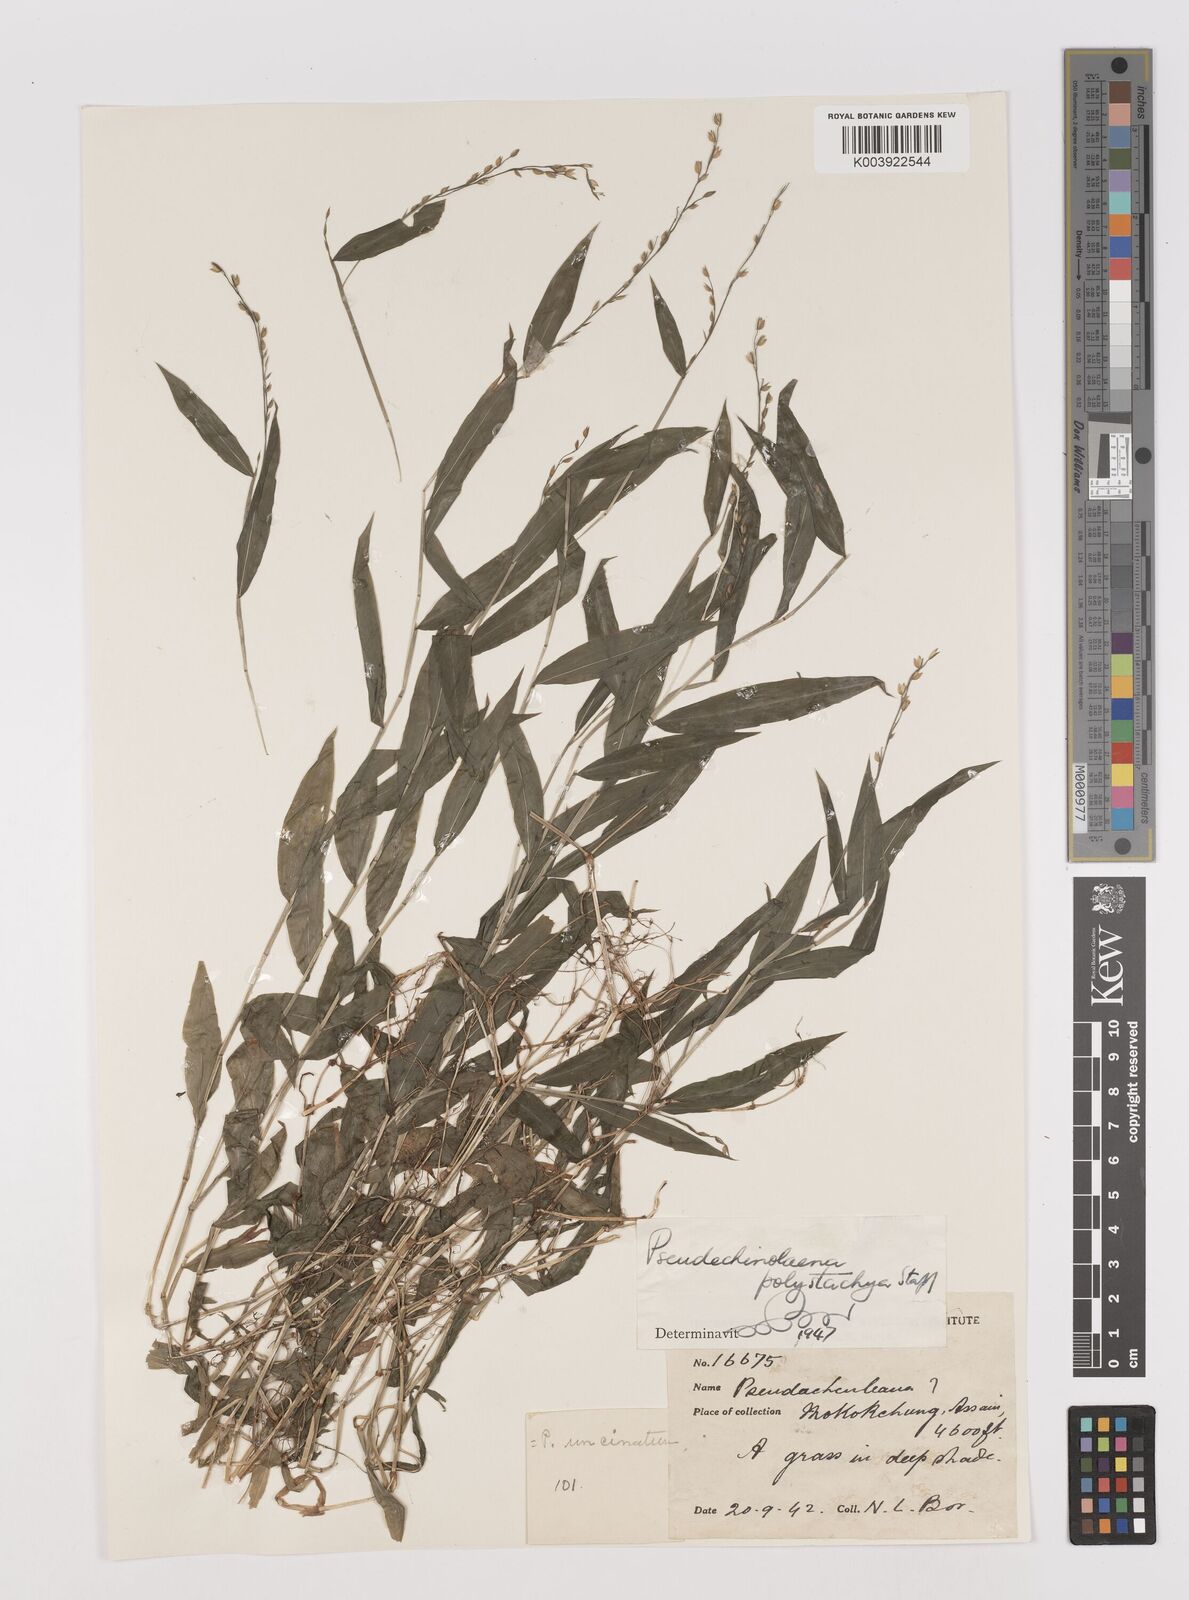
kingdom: Plantae
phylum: Tracheophyta
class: Liliopsida
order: Poales
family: Poaceae
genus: Pseudechinolaena
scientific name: Pseudechinolaena polystachya
